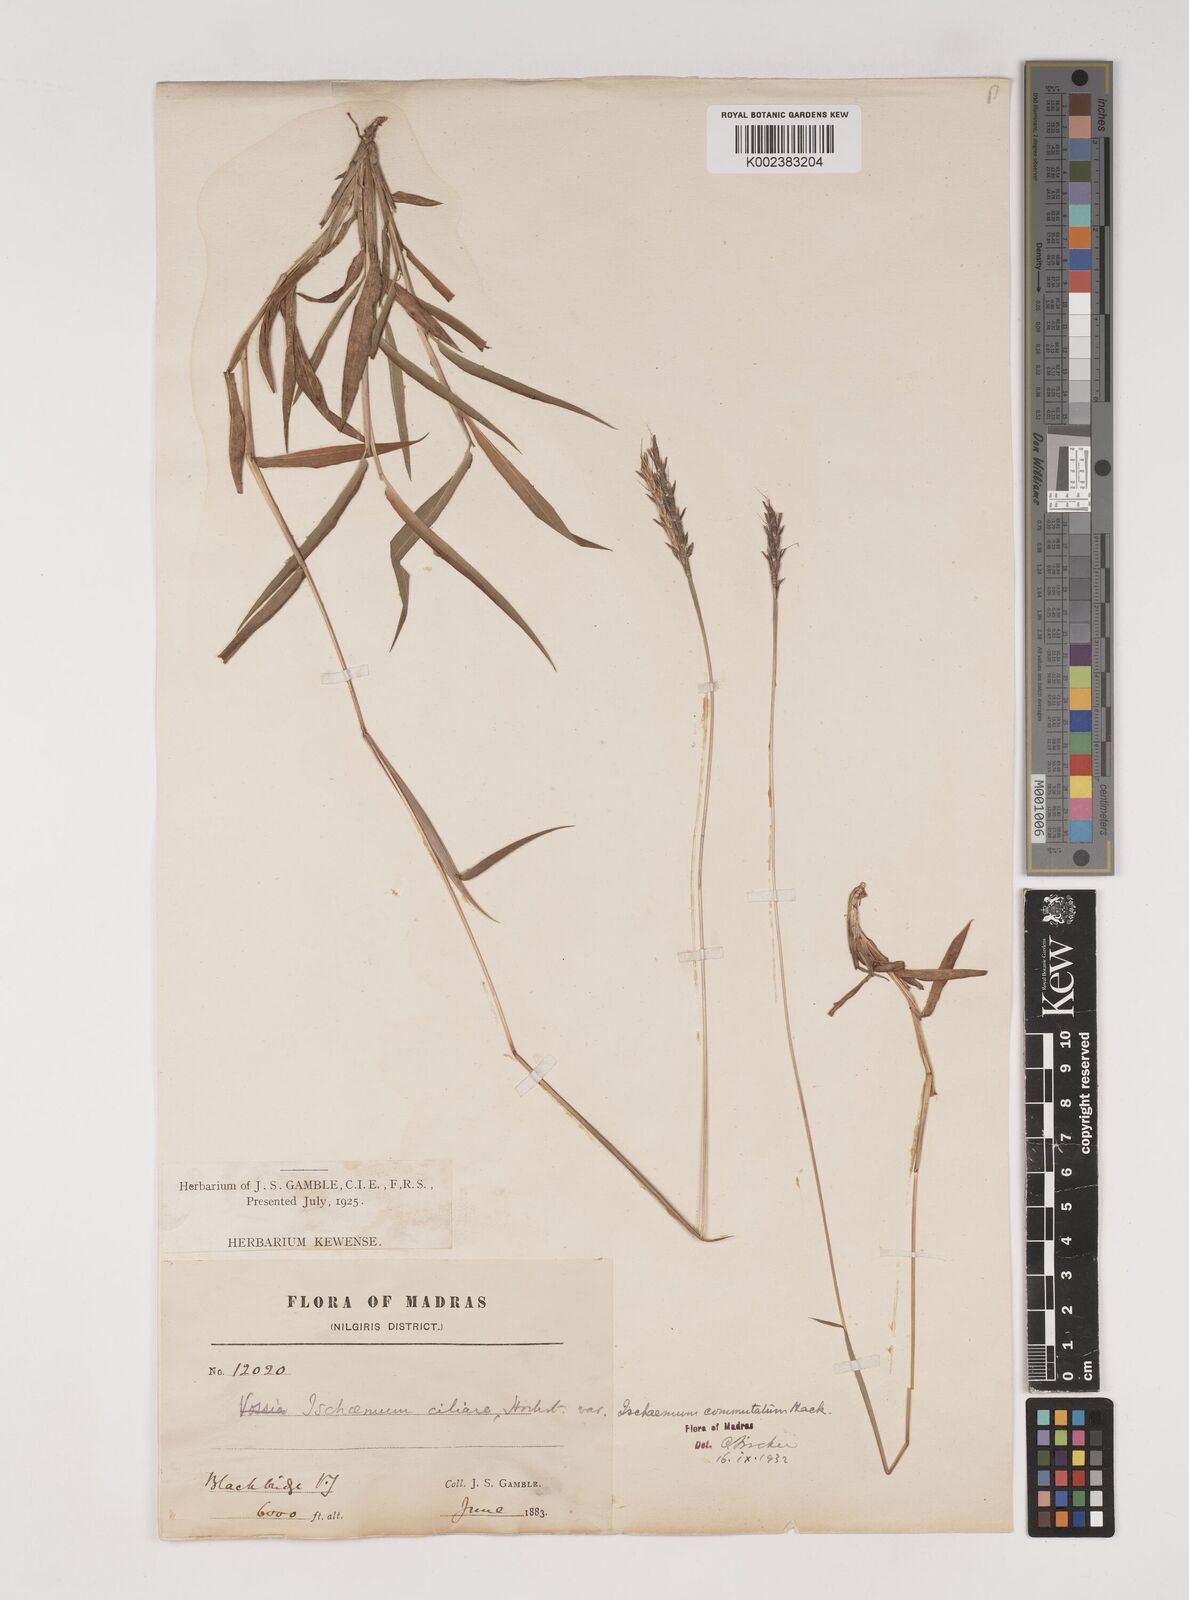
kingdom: Plantae
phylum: Tracheophyta
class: Liliopsida
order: Poales
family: Poaceae
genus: Ischaemum
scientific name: Ischaemum commutatum
